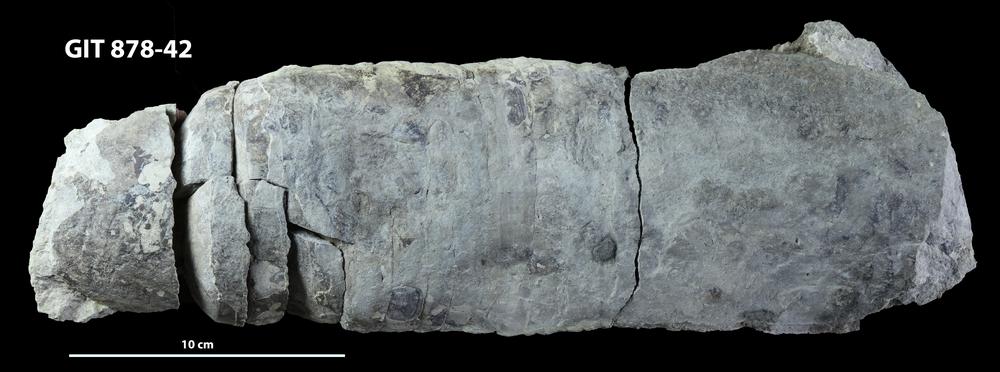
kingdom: Animalia
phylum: Mollusca
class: Cephalopoda
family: Endoceratidae
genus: Endoceras
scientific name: Endoceras
